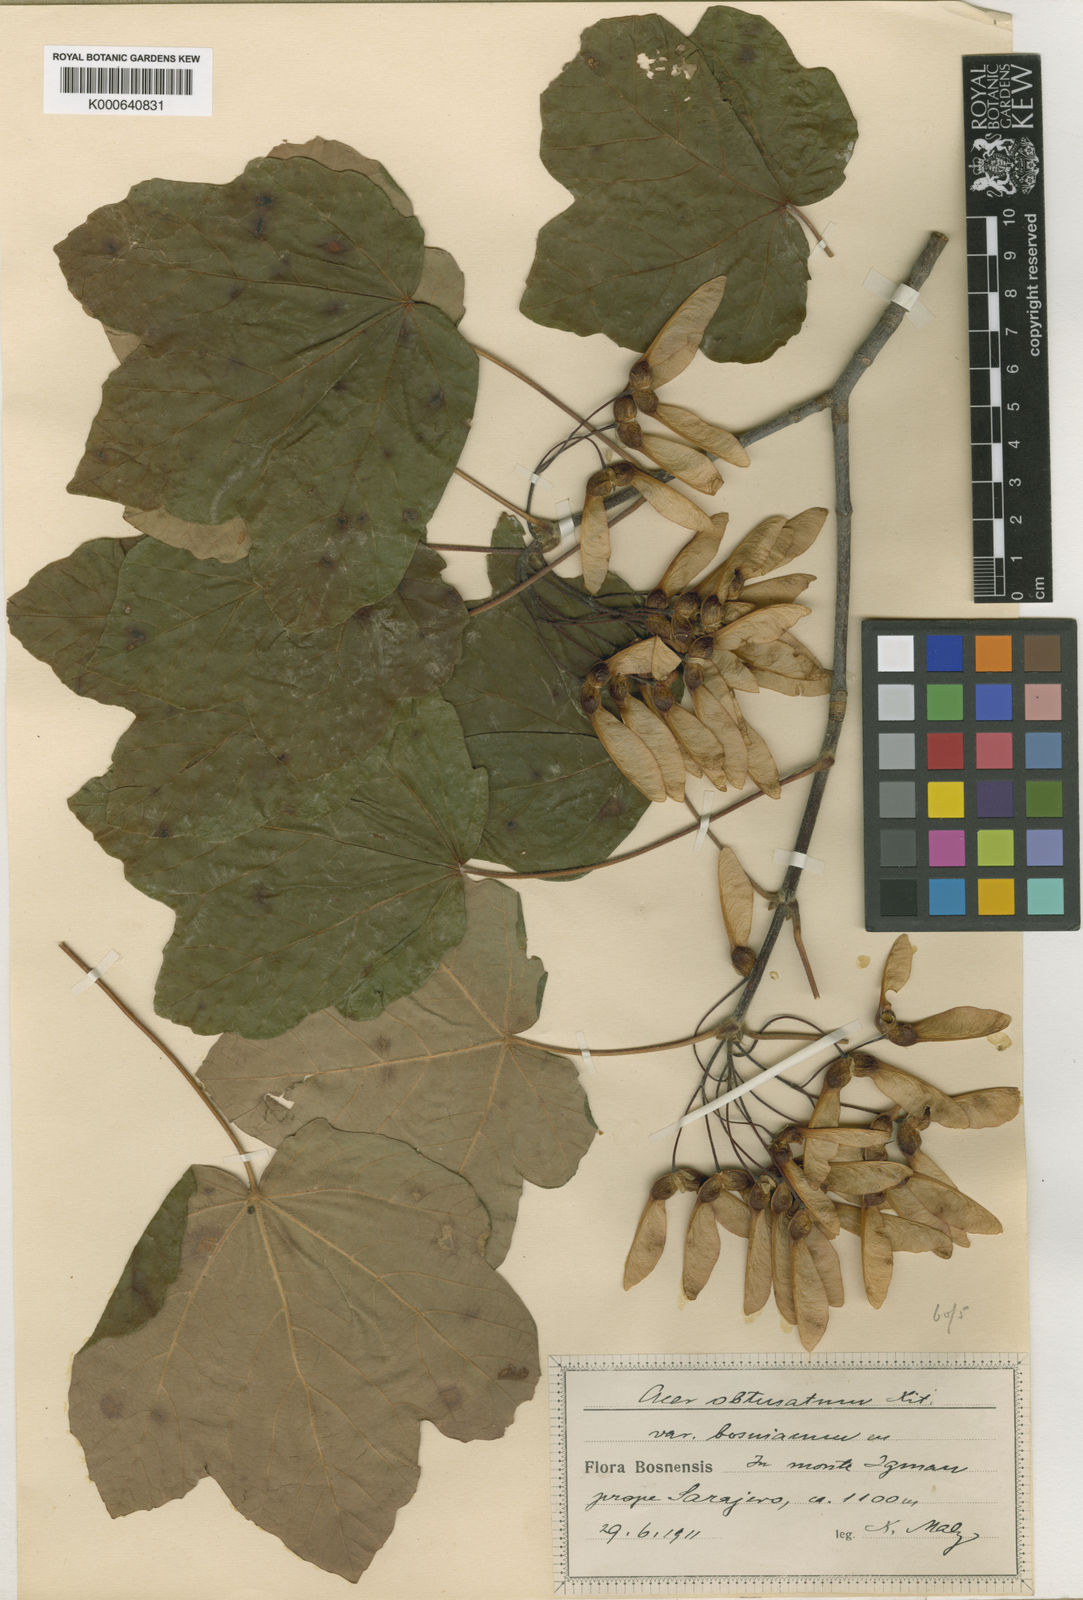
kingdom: Plantae
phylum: Tracheophyta
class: Magnoliopsida
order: Sapindales
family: Sapindaceae
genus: Acer
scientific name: Acer opalus
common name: Italian maple
